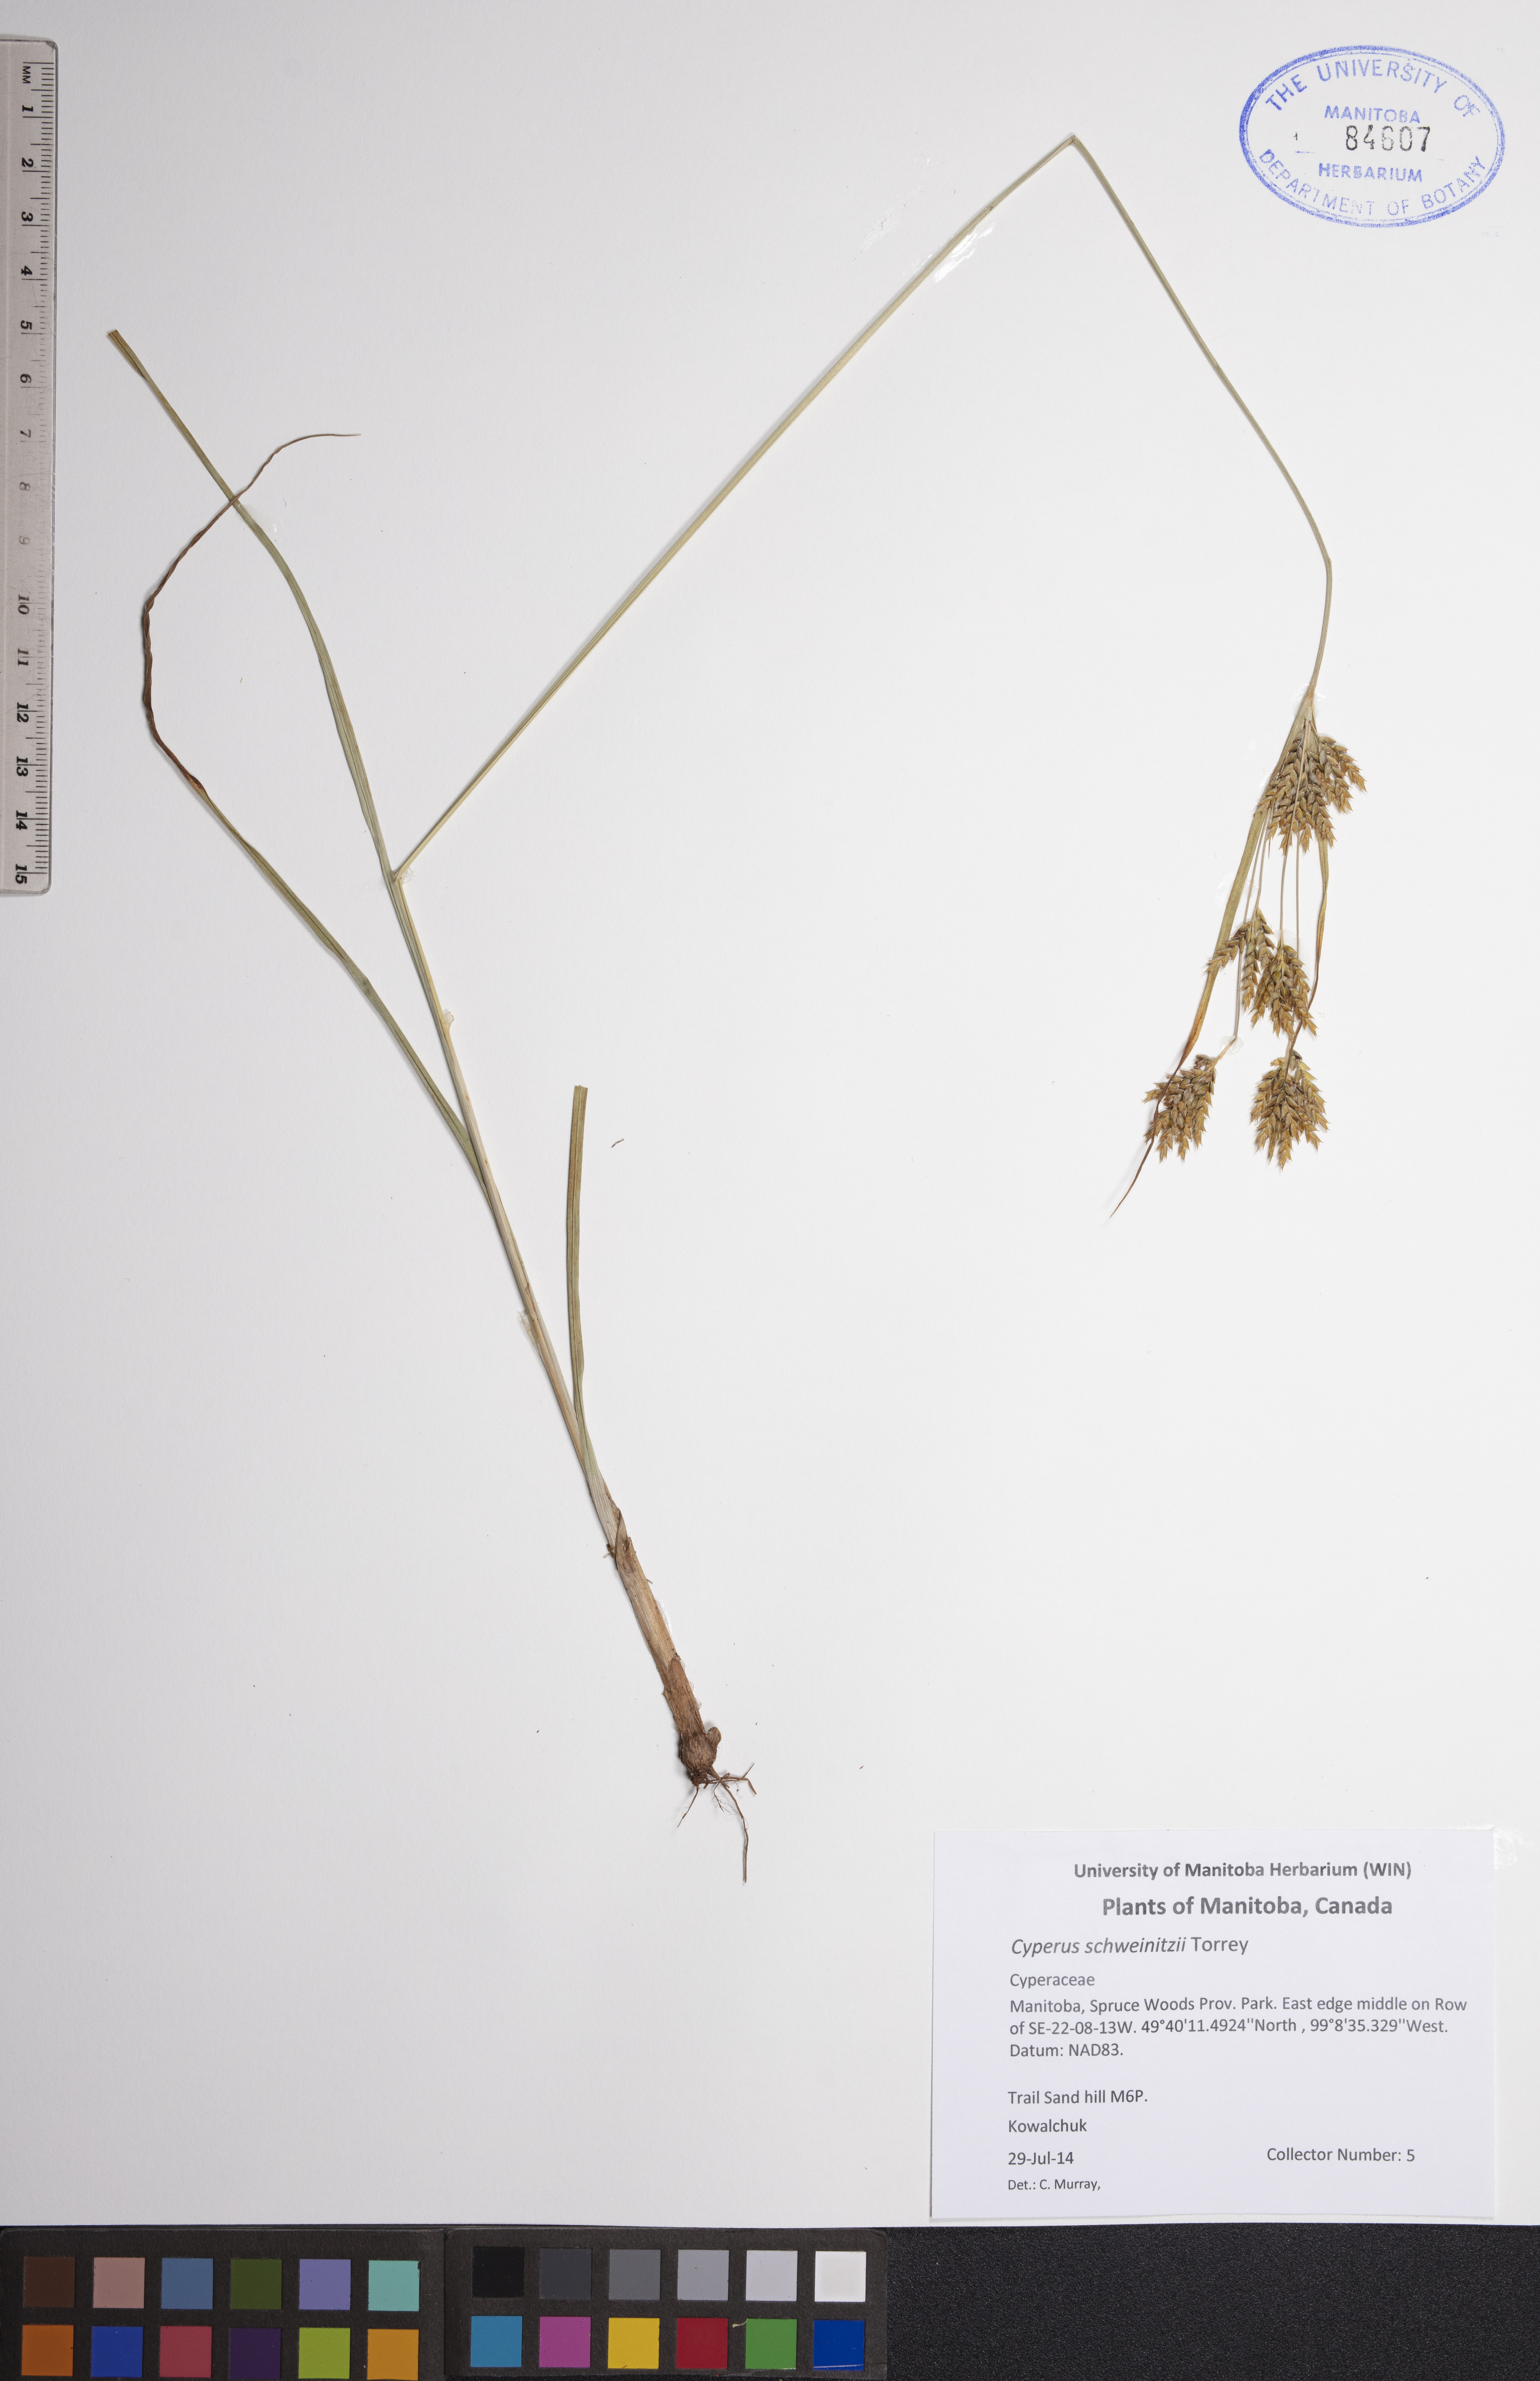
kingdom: Plantae
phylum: Tracheophyta
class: Liliopsida
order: Poales
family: Cyperaceae
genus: Cyperus
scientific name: Cyperus schweinitzii
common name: Schweinitz's cyperus
